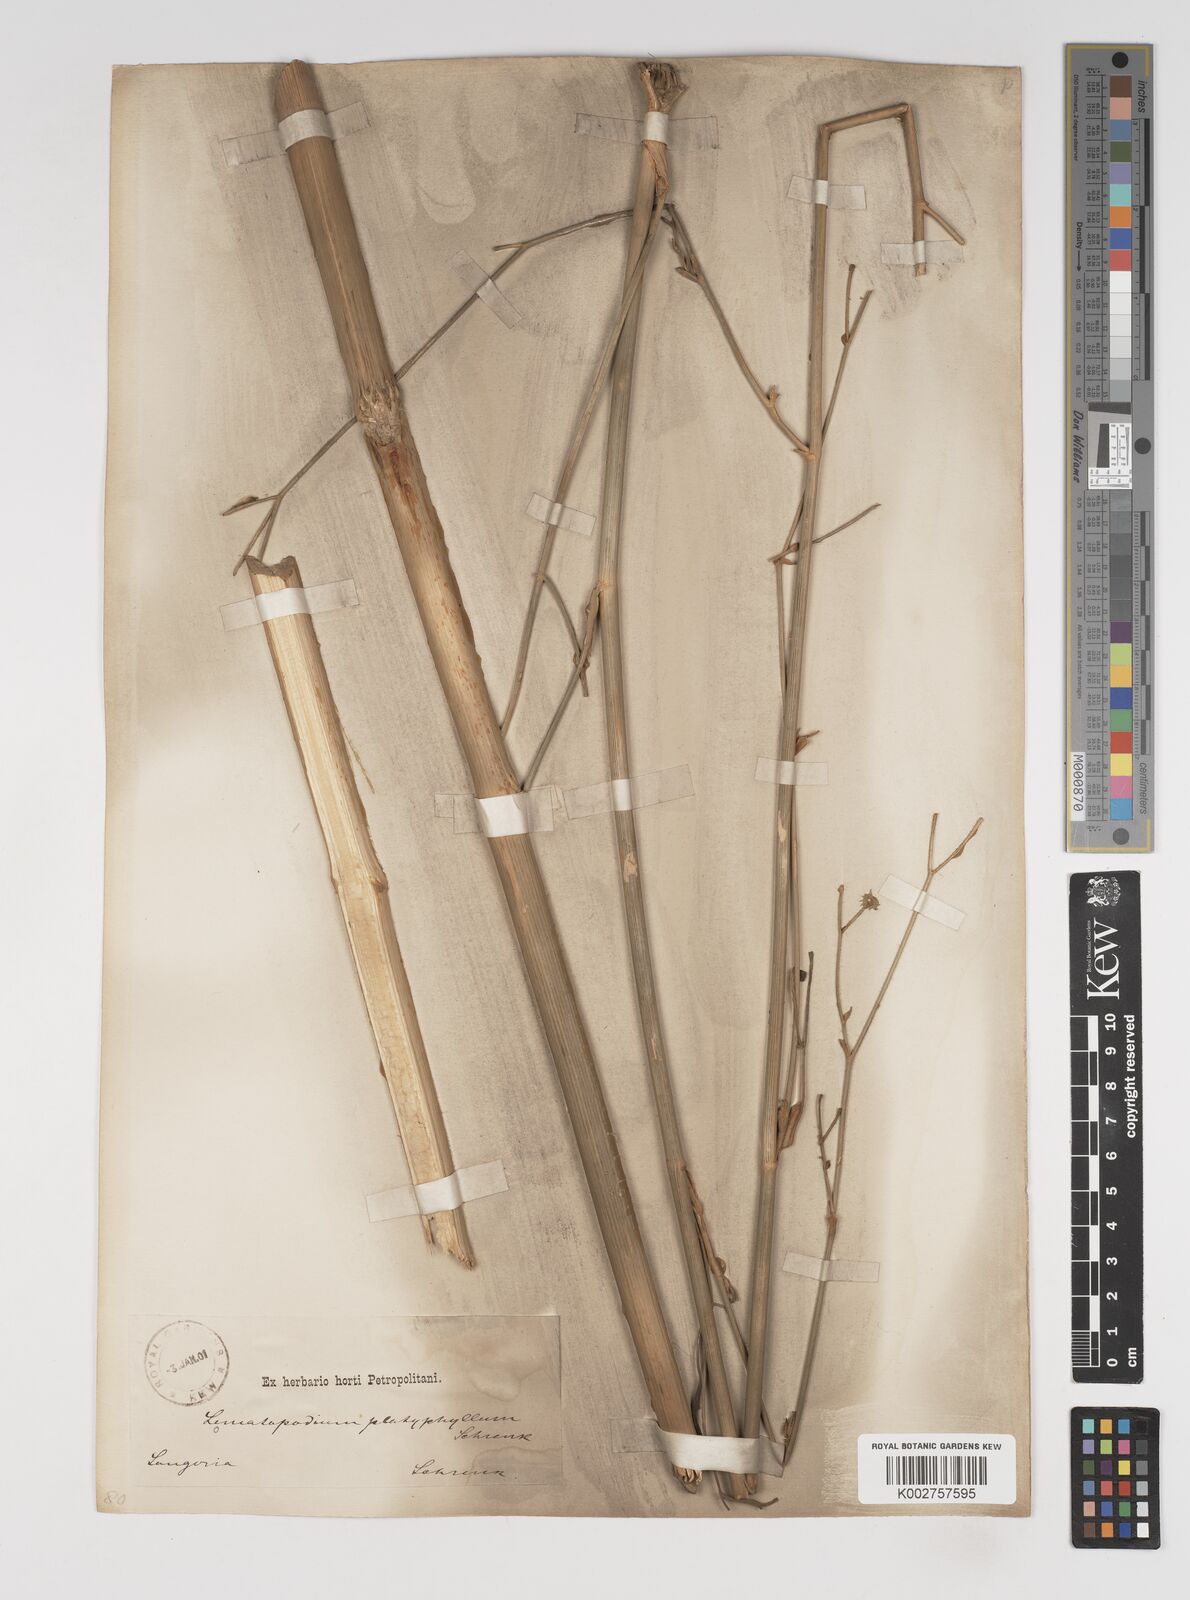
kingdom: Plantae
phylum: Tracheophyta
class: Magnoliopsida
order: Apiales
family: Apiaceae
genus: Seseli
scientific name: Seseli
